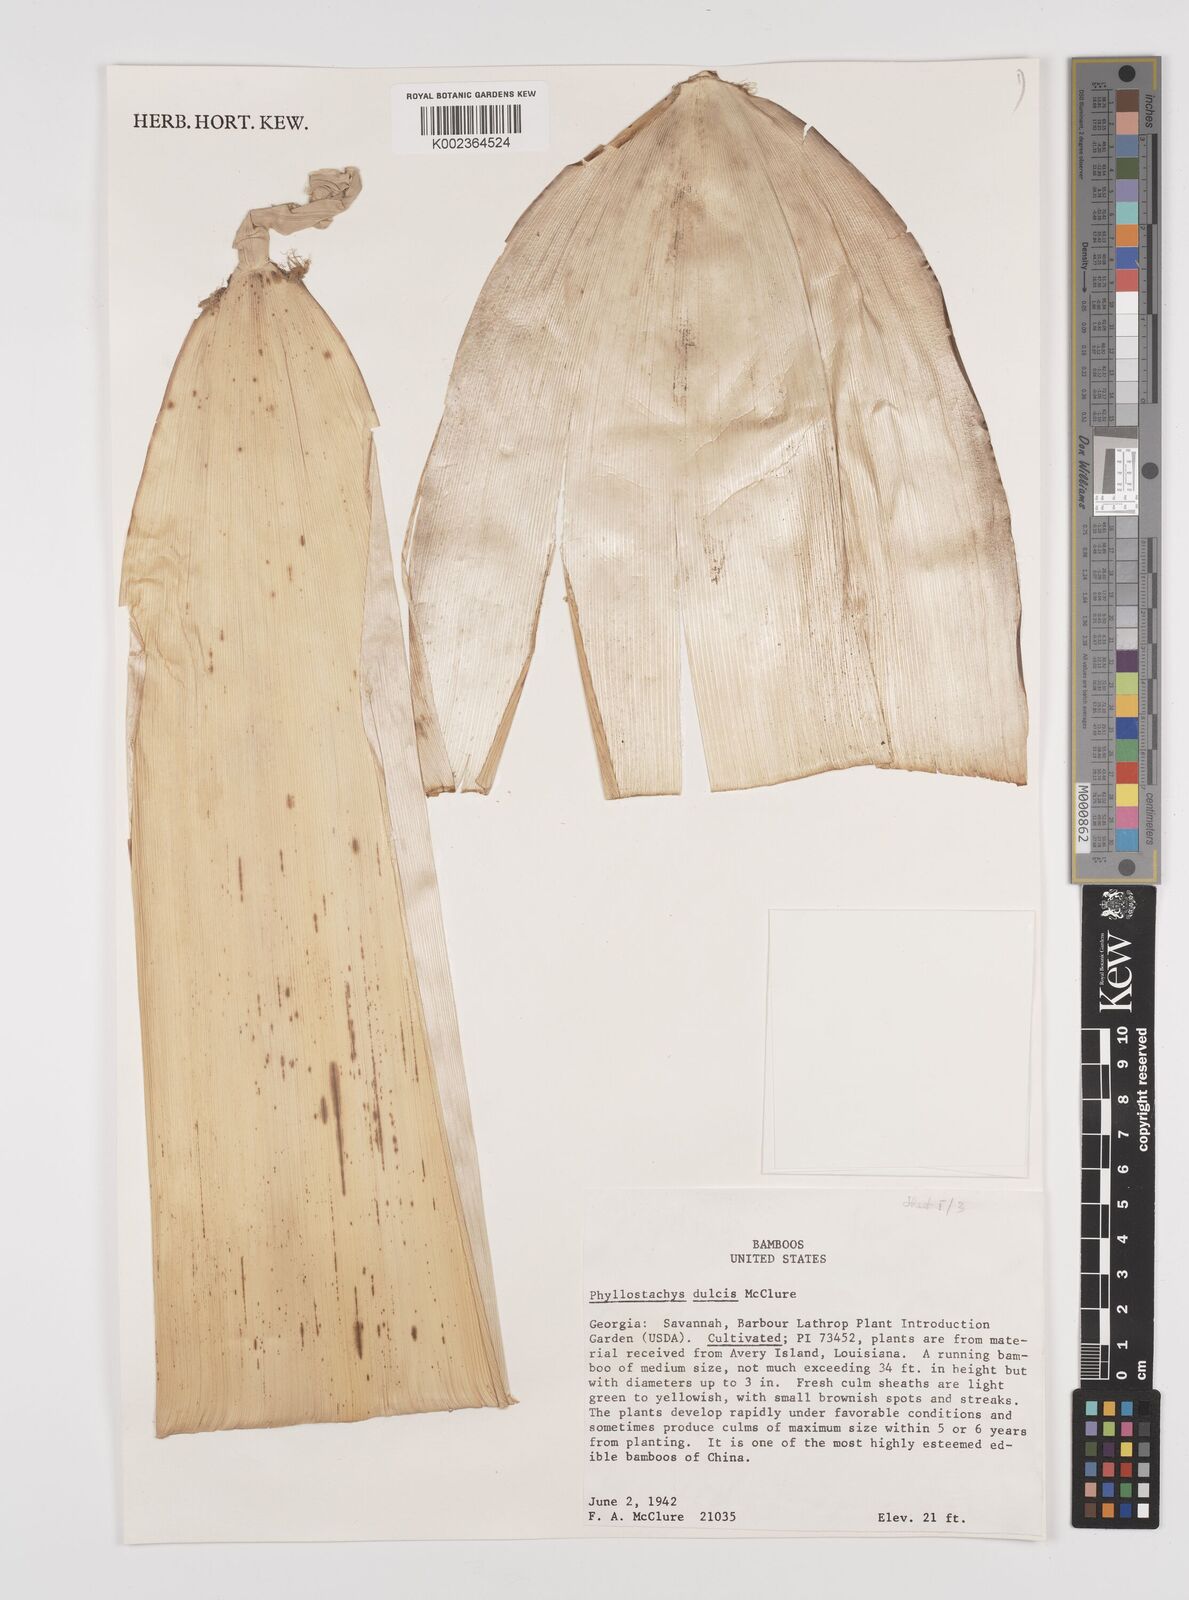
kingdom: Plantae
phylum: Tracheophyta
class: Liliopsida
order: Poales
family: Poaceae
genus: Phyllostachys
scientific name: Phyllostachys dulcis
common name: Sweetshoot bamboo
